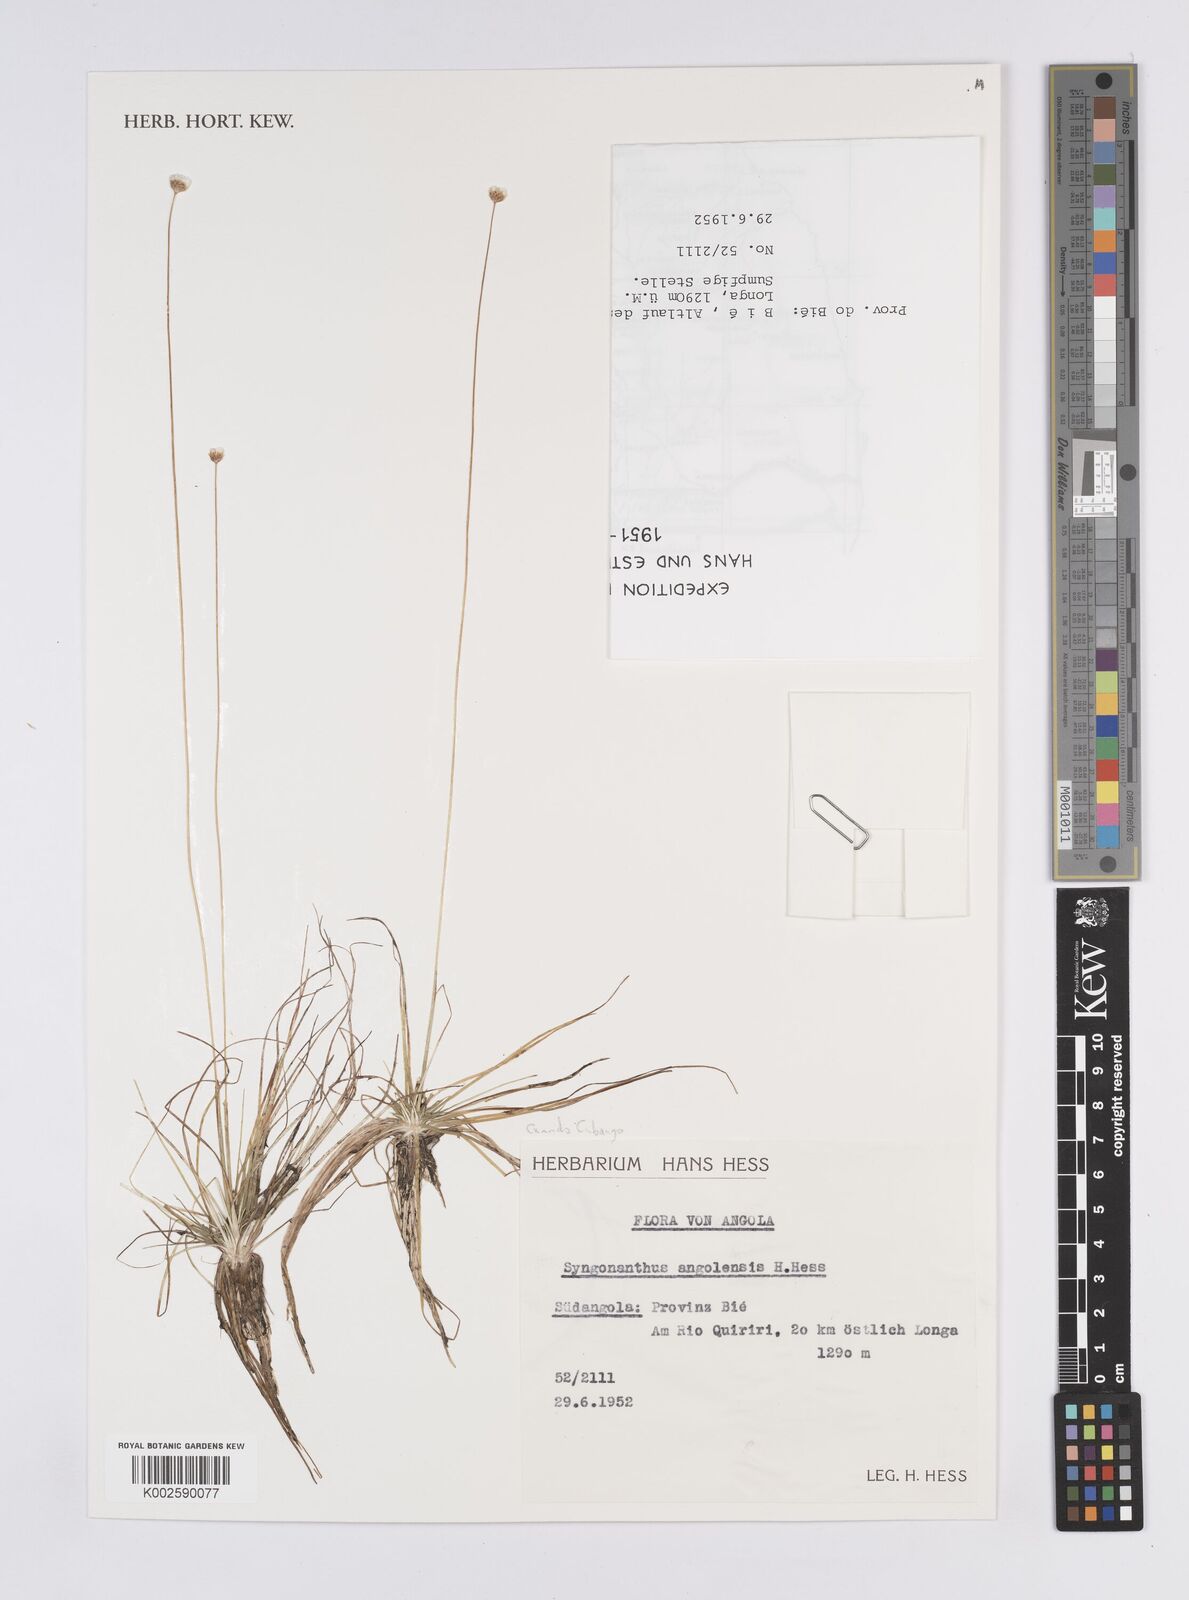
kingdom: Plantae
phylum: Tracheophyta
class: Liliopsida
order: Poales
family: Eriocaulaceae
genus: Syngonanthus
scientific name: Syngonanthus angolensis
